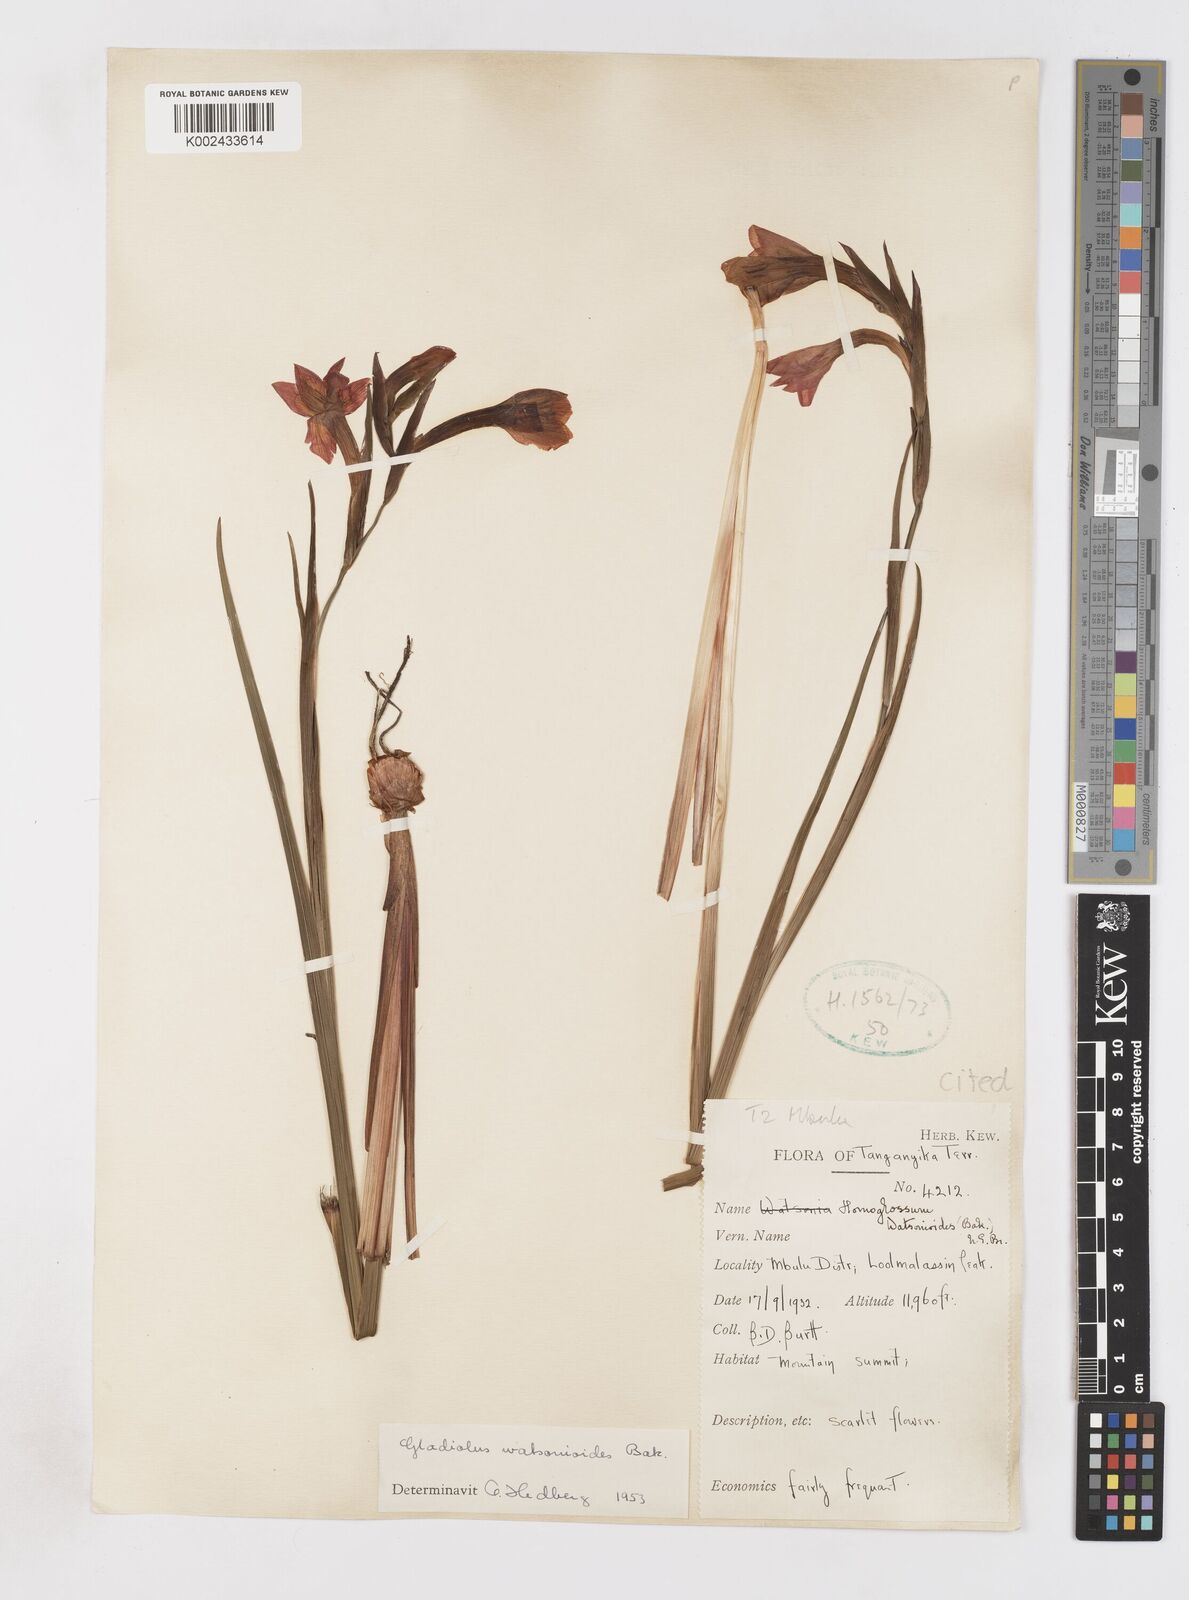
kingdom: Plantae
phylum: Tracheophyta
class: Liliopsida
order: Asparagales
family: Iridaceae
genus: Gladiolus
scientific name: Gladiolus watsonioides
